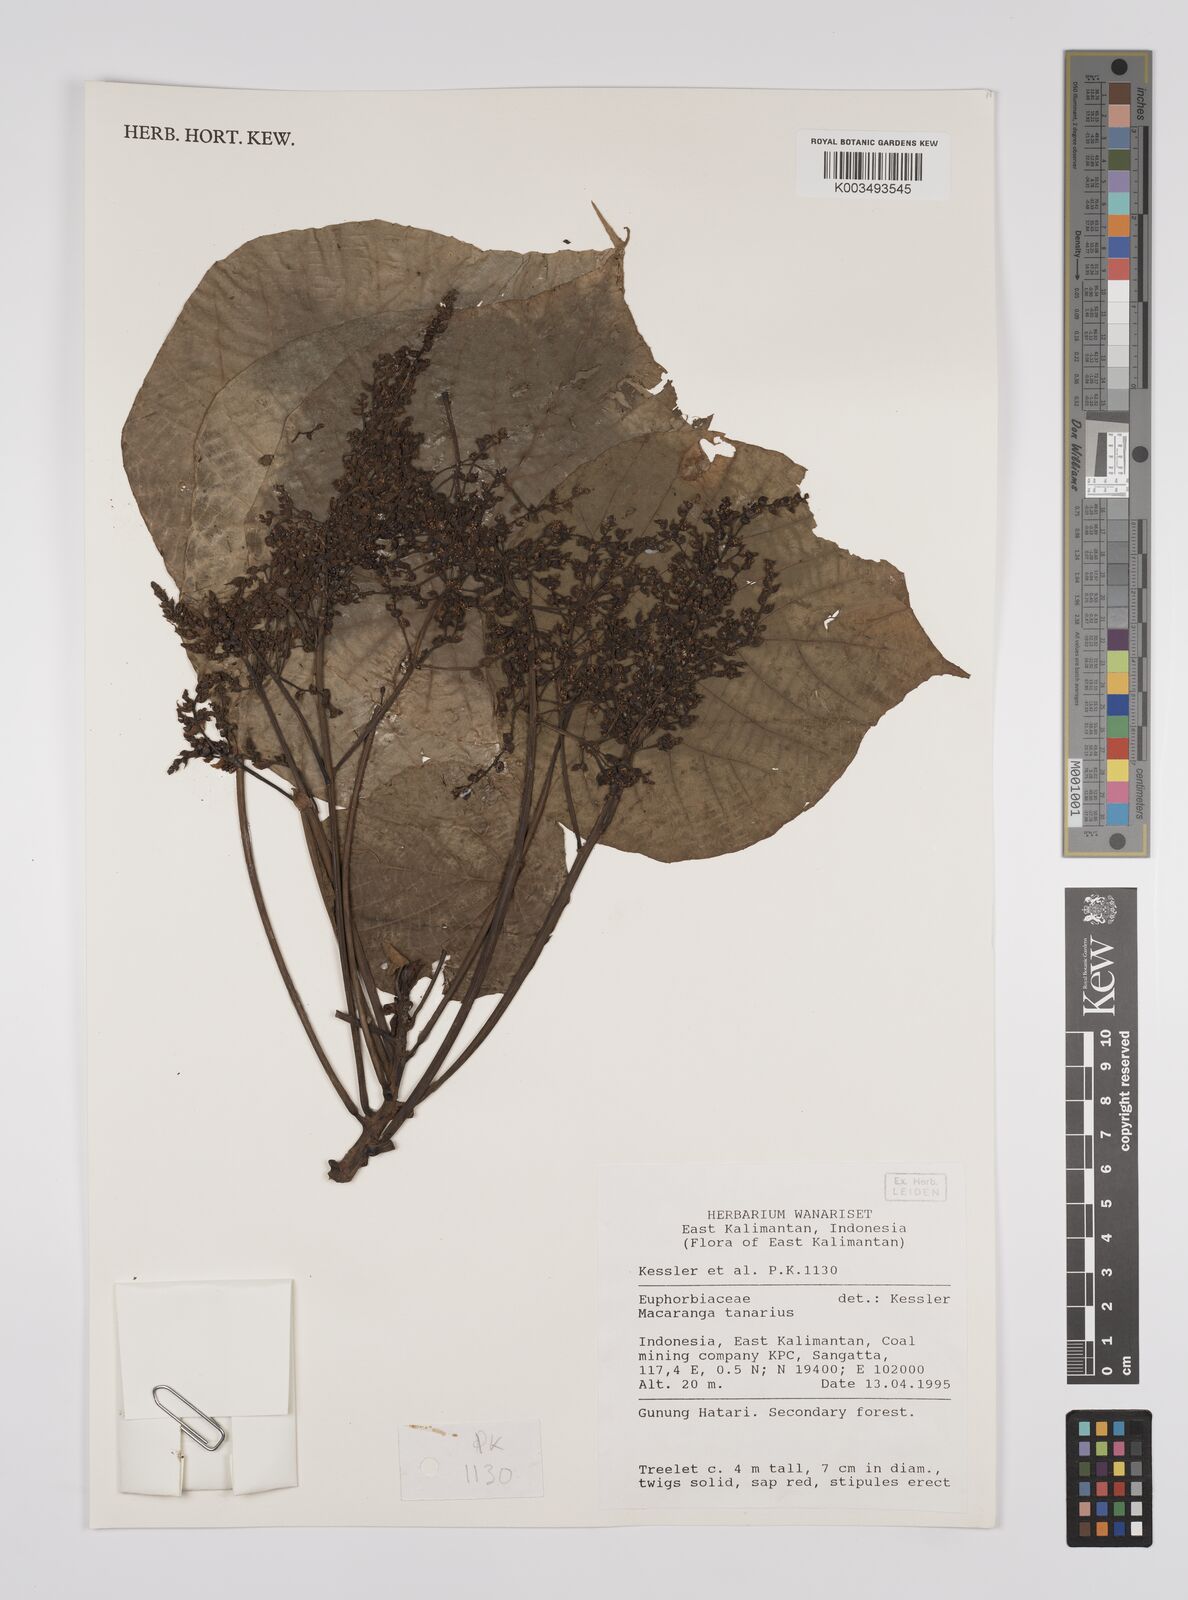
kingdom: Plantae
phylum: Tracheophyta
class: Magnoliopsida
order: Malpighiales
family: Euphorbiaceae
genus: Macaranga
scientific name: Macaranga tanarius
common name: Parasol leaf tree
